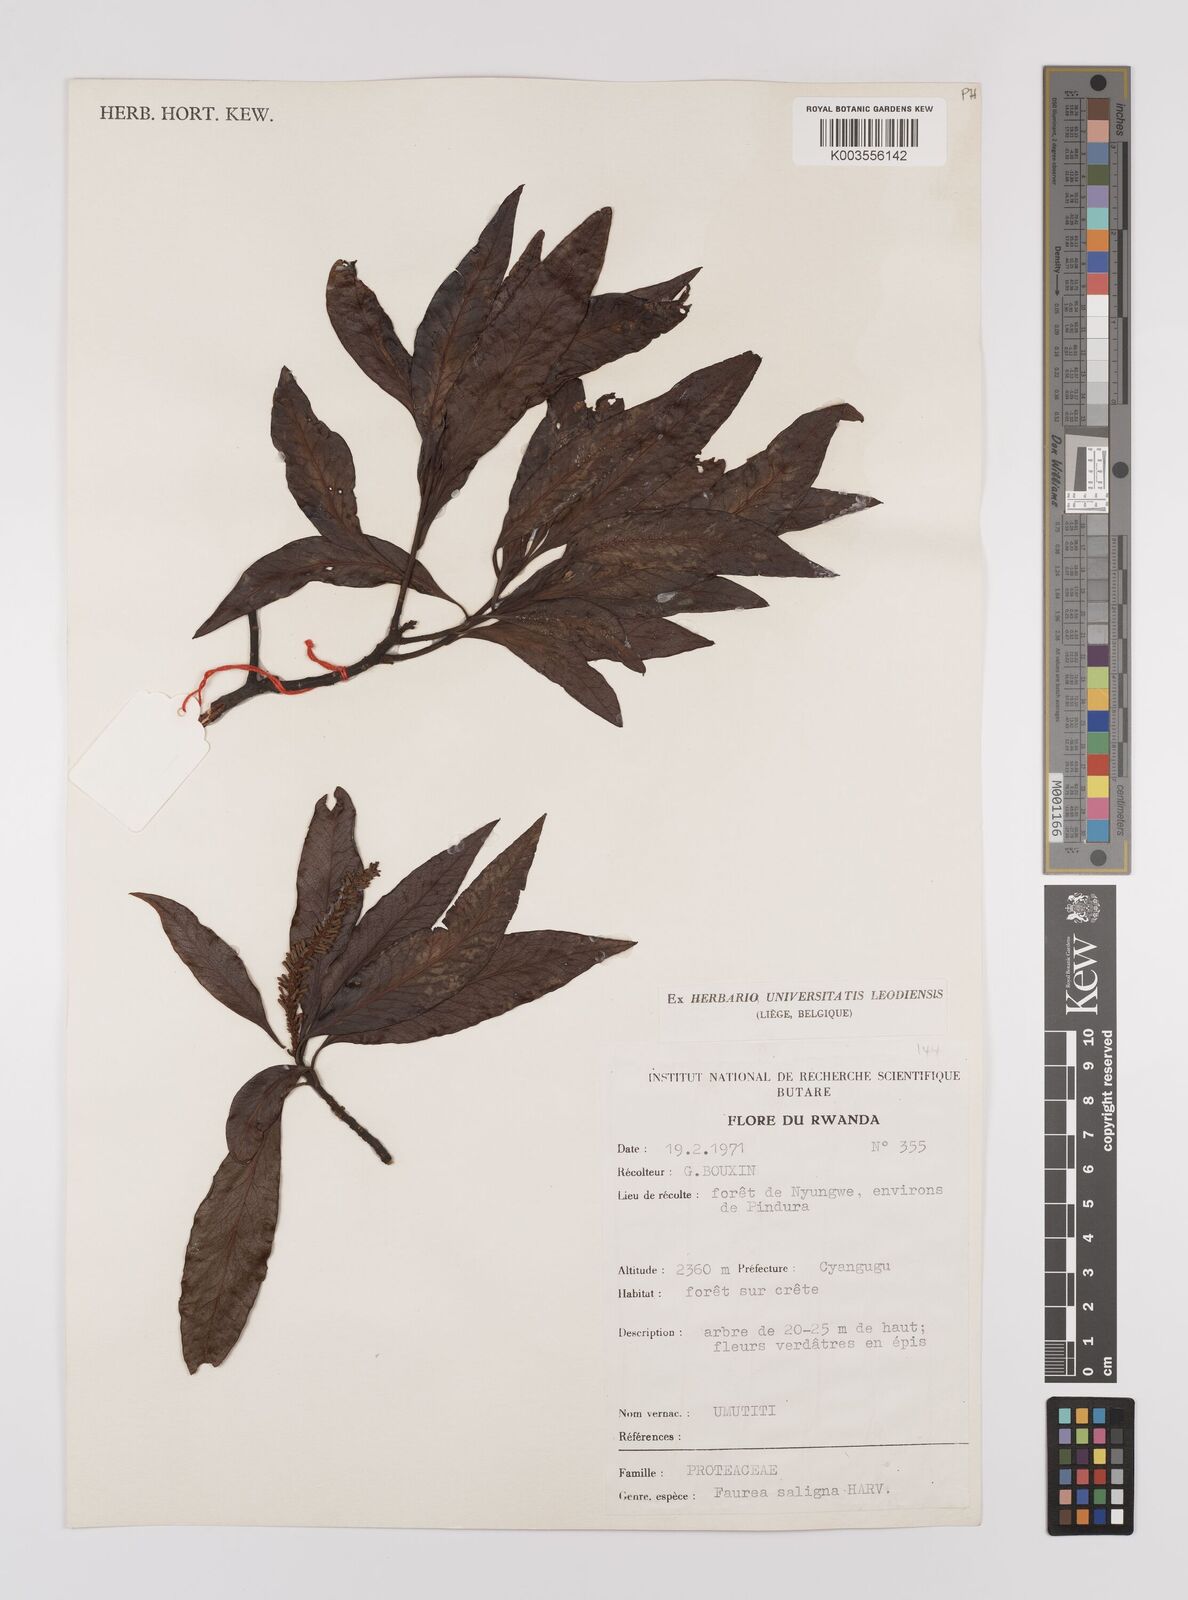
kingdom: Plantae
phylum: Tracheophyta
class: Magnoliopsida
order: Proteales
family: Proteaceae
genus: Faurea
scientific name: Faurea saligna
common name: African bean
